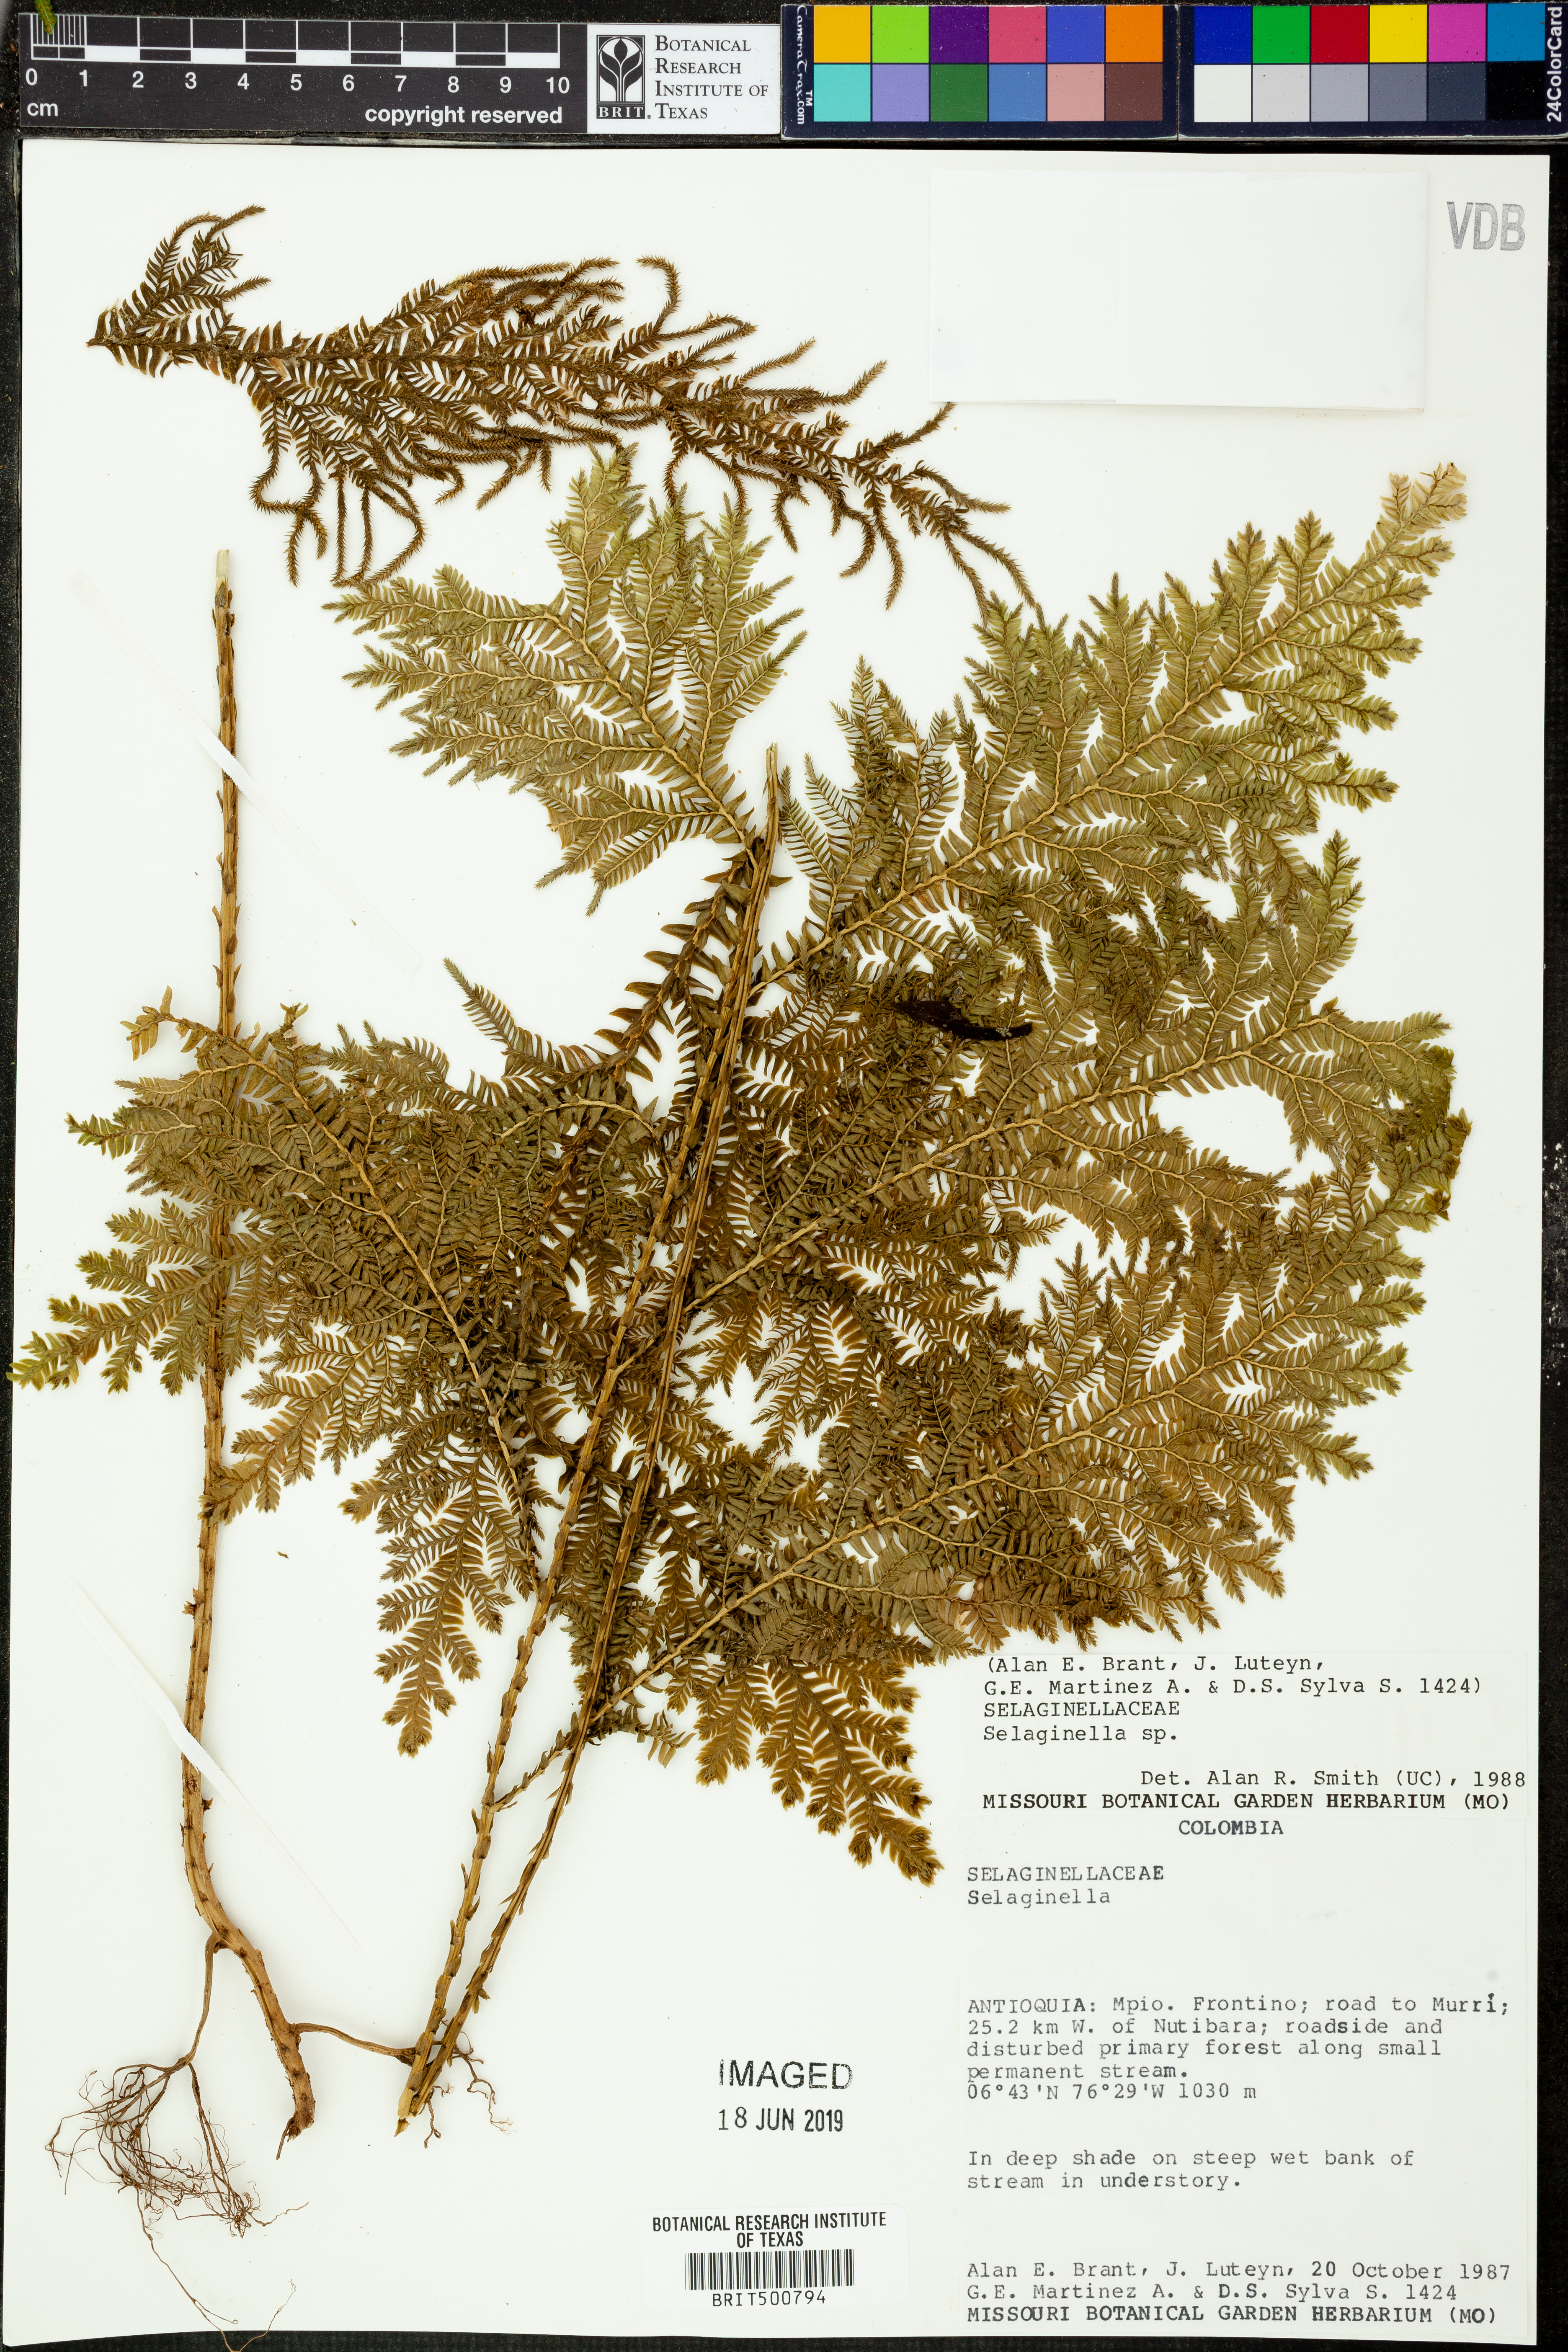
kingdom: Plantae
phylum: Tracheophyta
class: Lycopodiopsida
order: Selaginellales
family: Selaginellaceae
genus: Selaginella
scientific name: Selaginella wolffii
